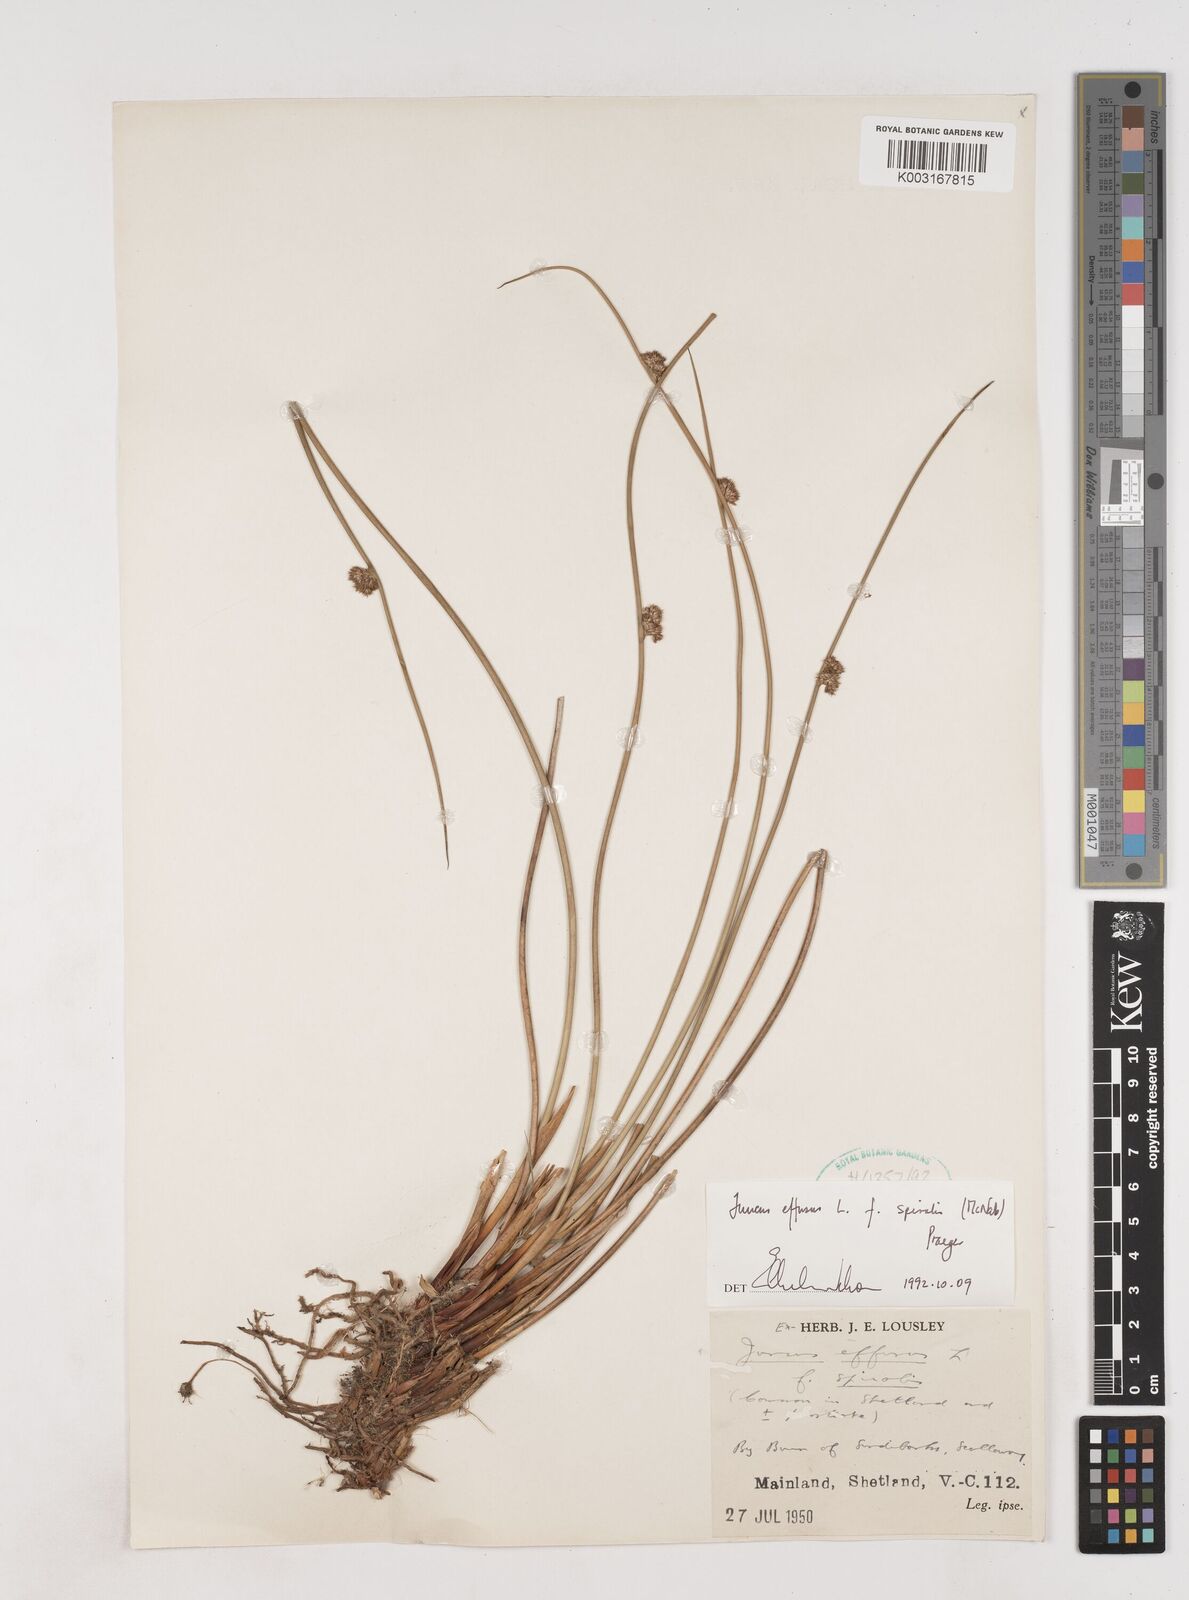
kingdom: Plantae
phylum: Tracheophyta
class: Liliopsida
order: Poales
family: Juncaceae
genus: Juncus
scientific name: Juncus effusus
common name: Soft rush
